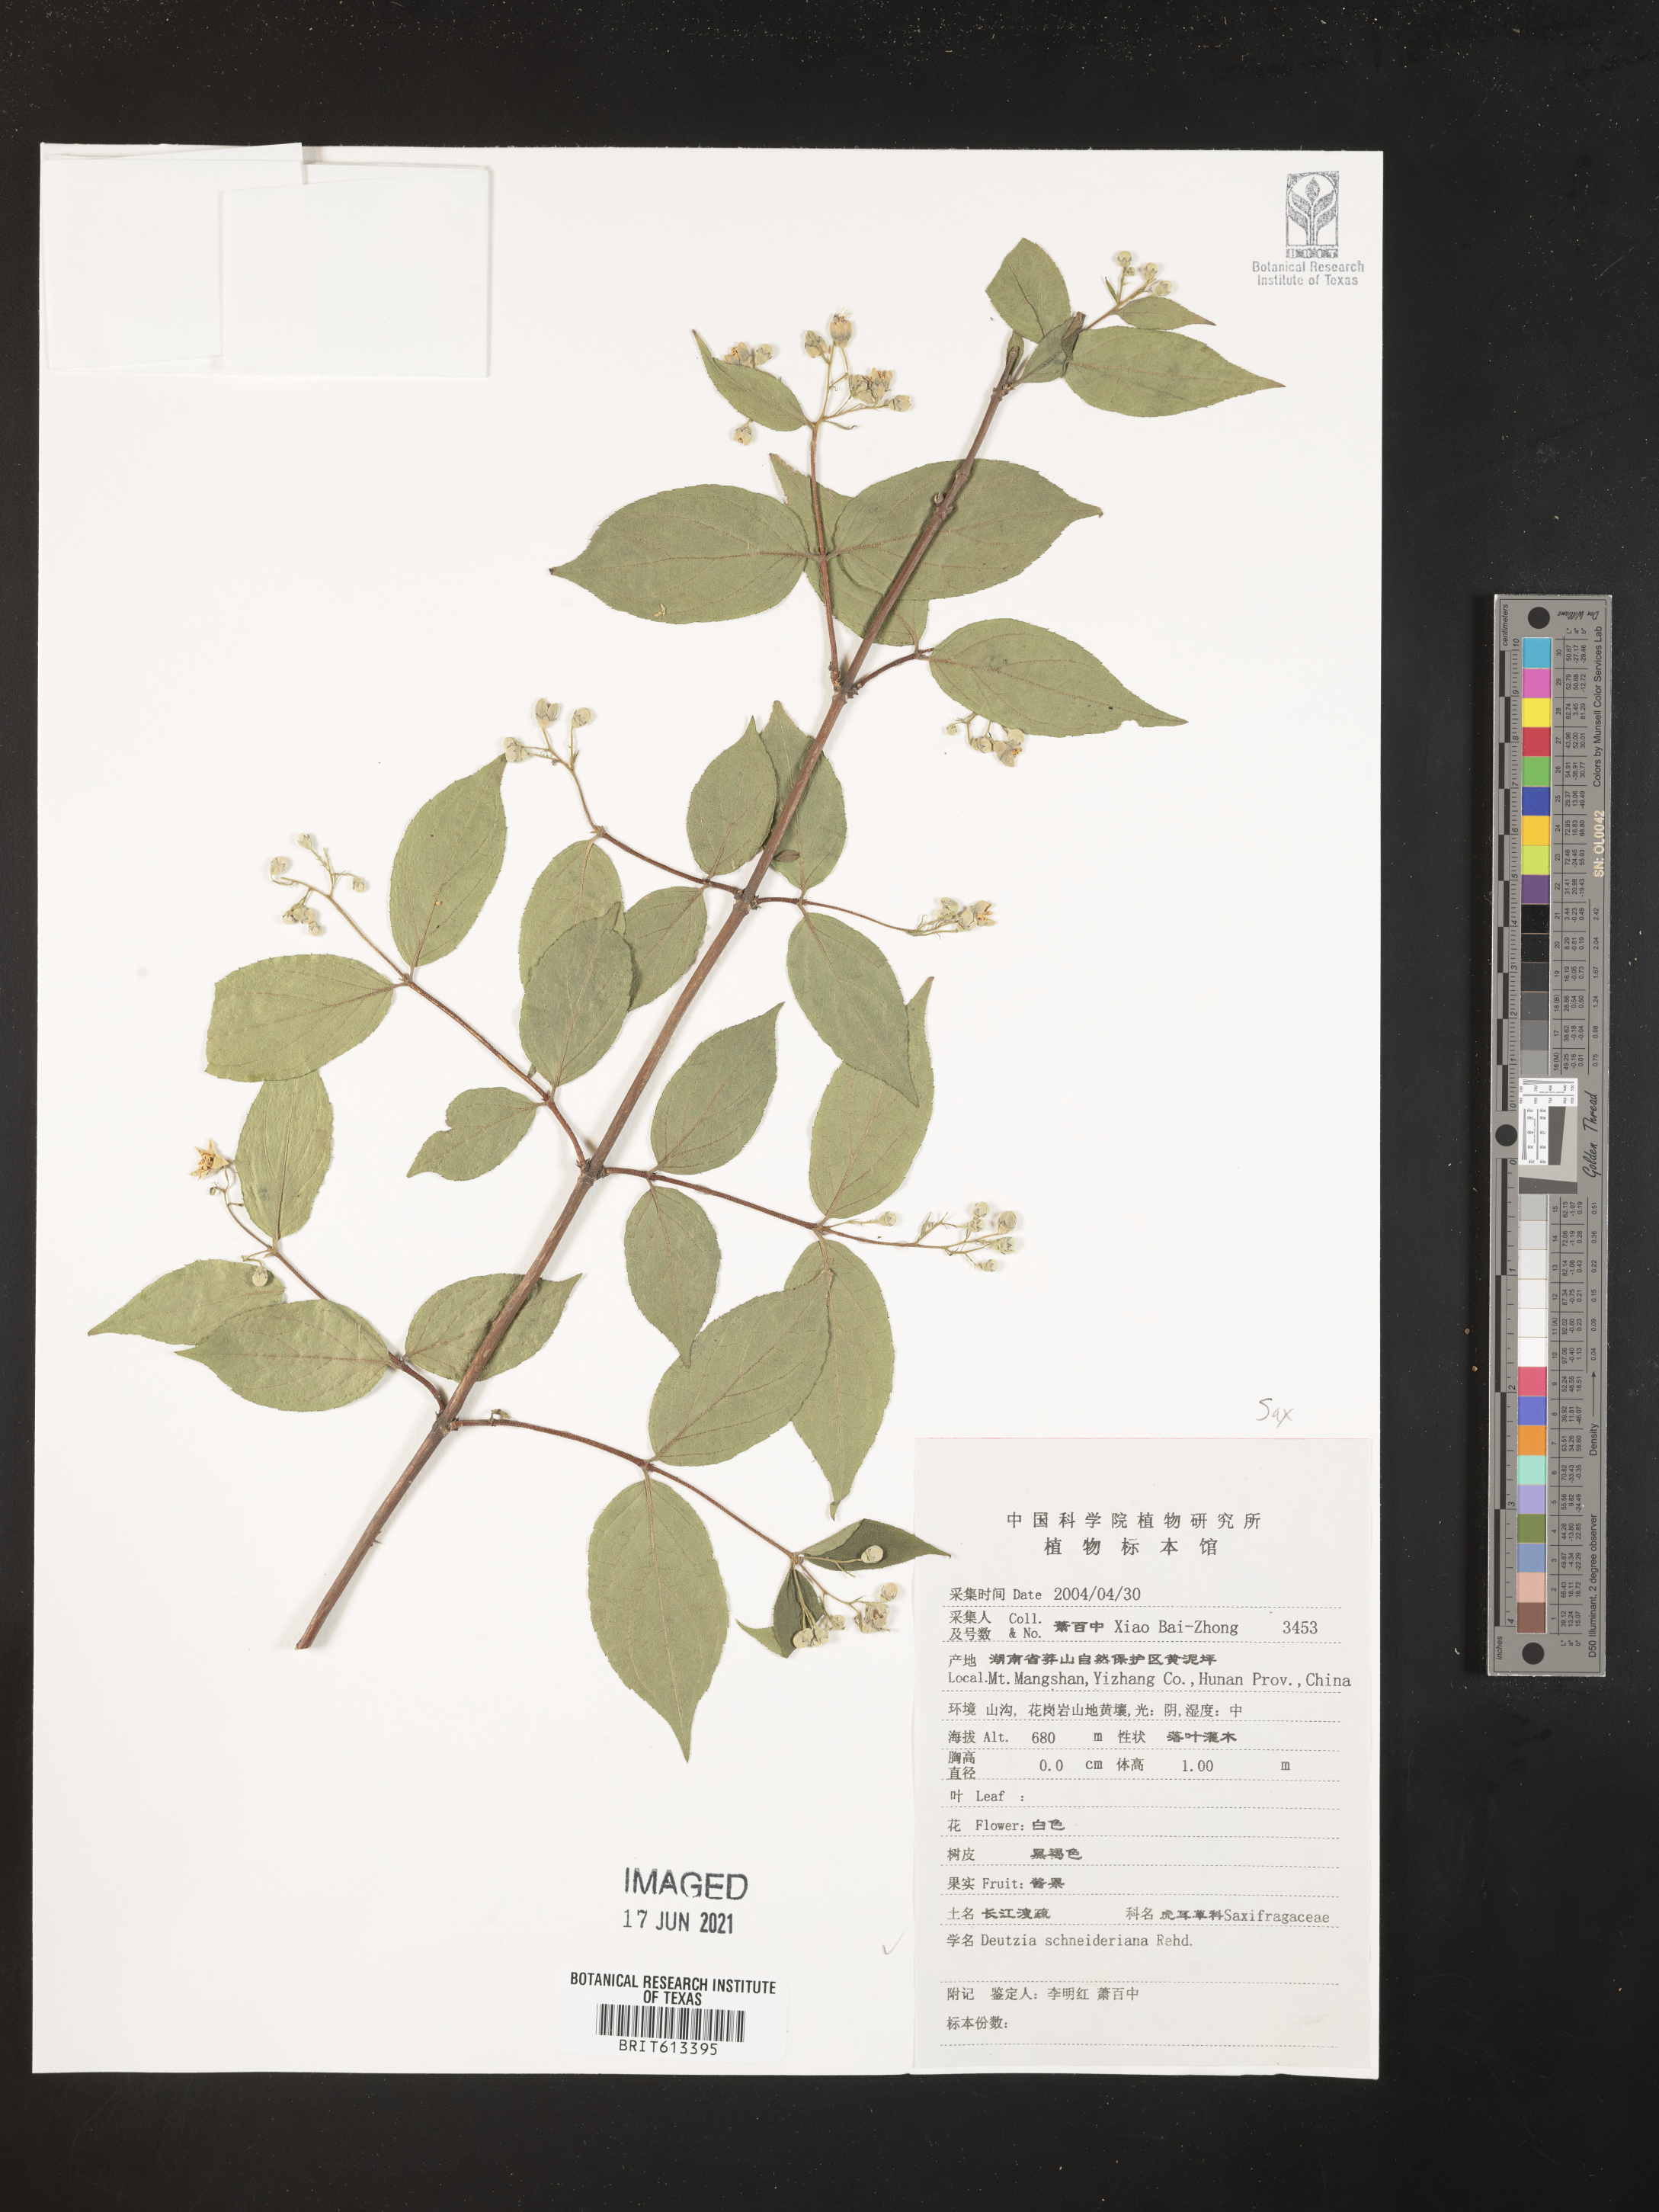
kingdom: Plantae
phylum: Tracheophyta
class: Magnoliopsida
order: Cornales
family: Hydrangeaceae
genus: Deutzia
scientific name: Deutzia schneideriana
